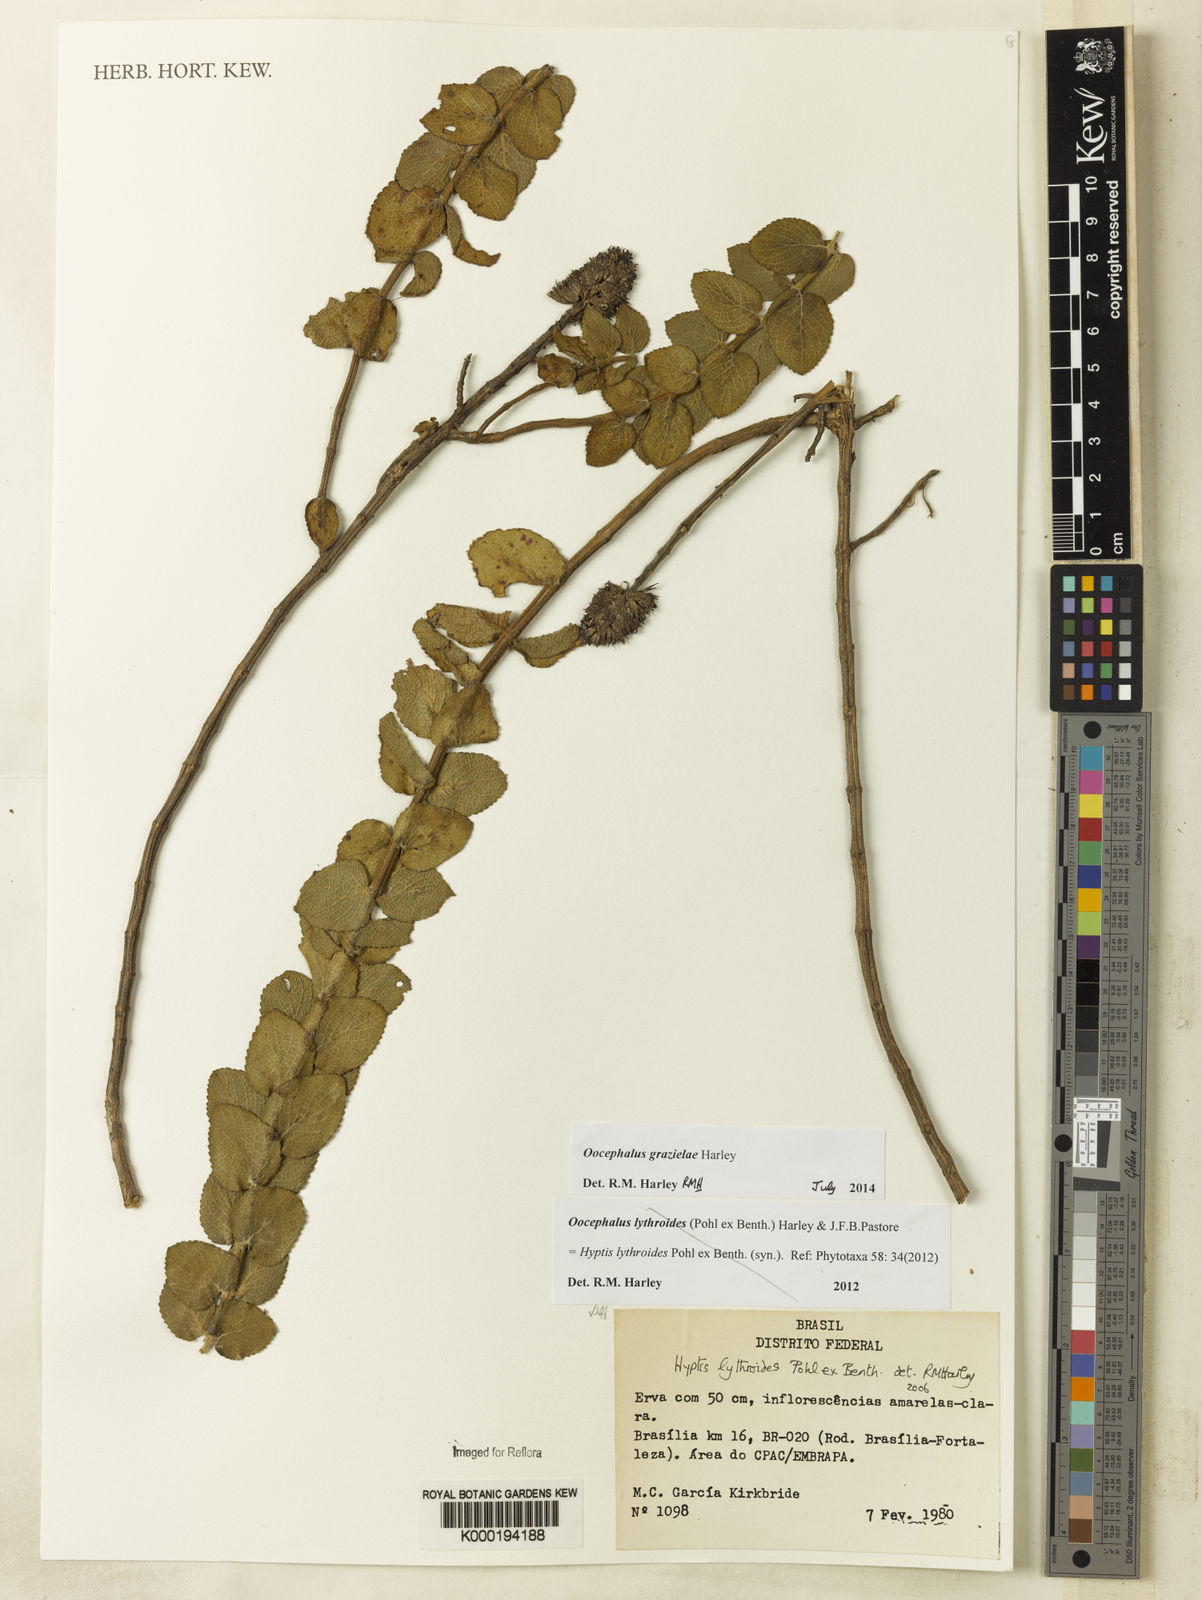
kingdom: Plantae
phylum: Tracheophyta
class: Magnoliopsida
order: Lamiales
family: Lamiaceae
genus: Oocephalus
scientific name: Oocephalus lythroides
